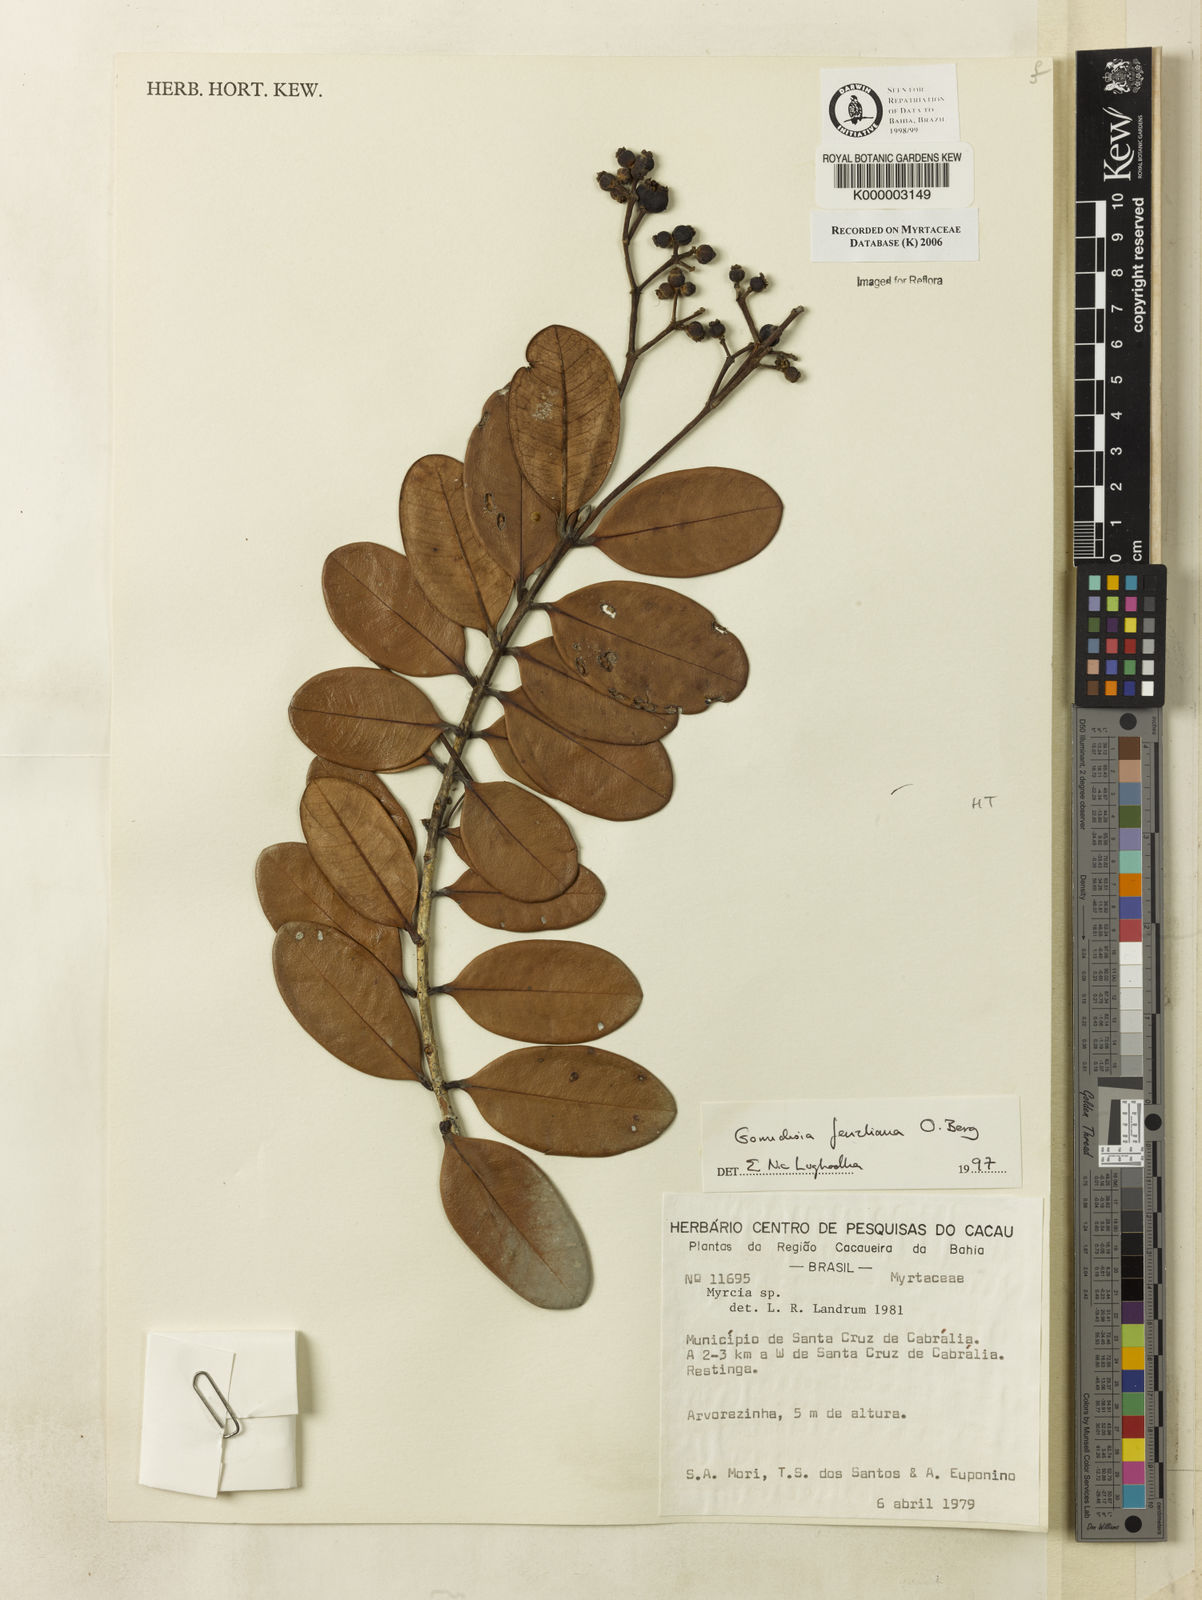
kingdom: Plantae
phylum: Tracheophyta
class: Magnoliopsida
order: Myrtales
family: Myrtaceae
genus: Myrcia
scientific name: Myrcia ilheosensis
